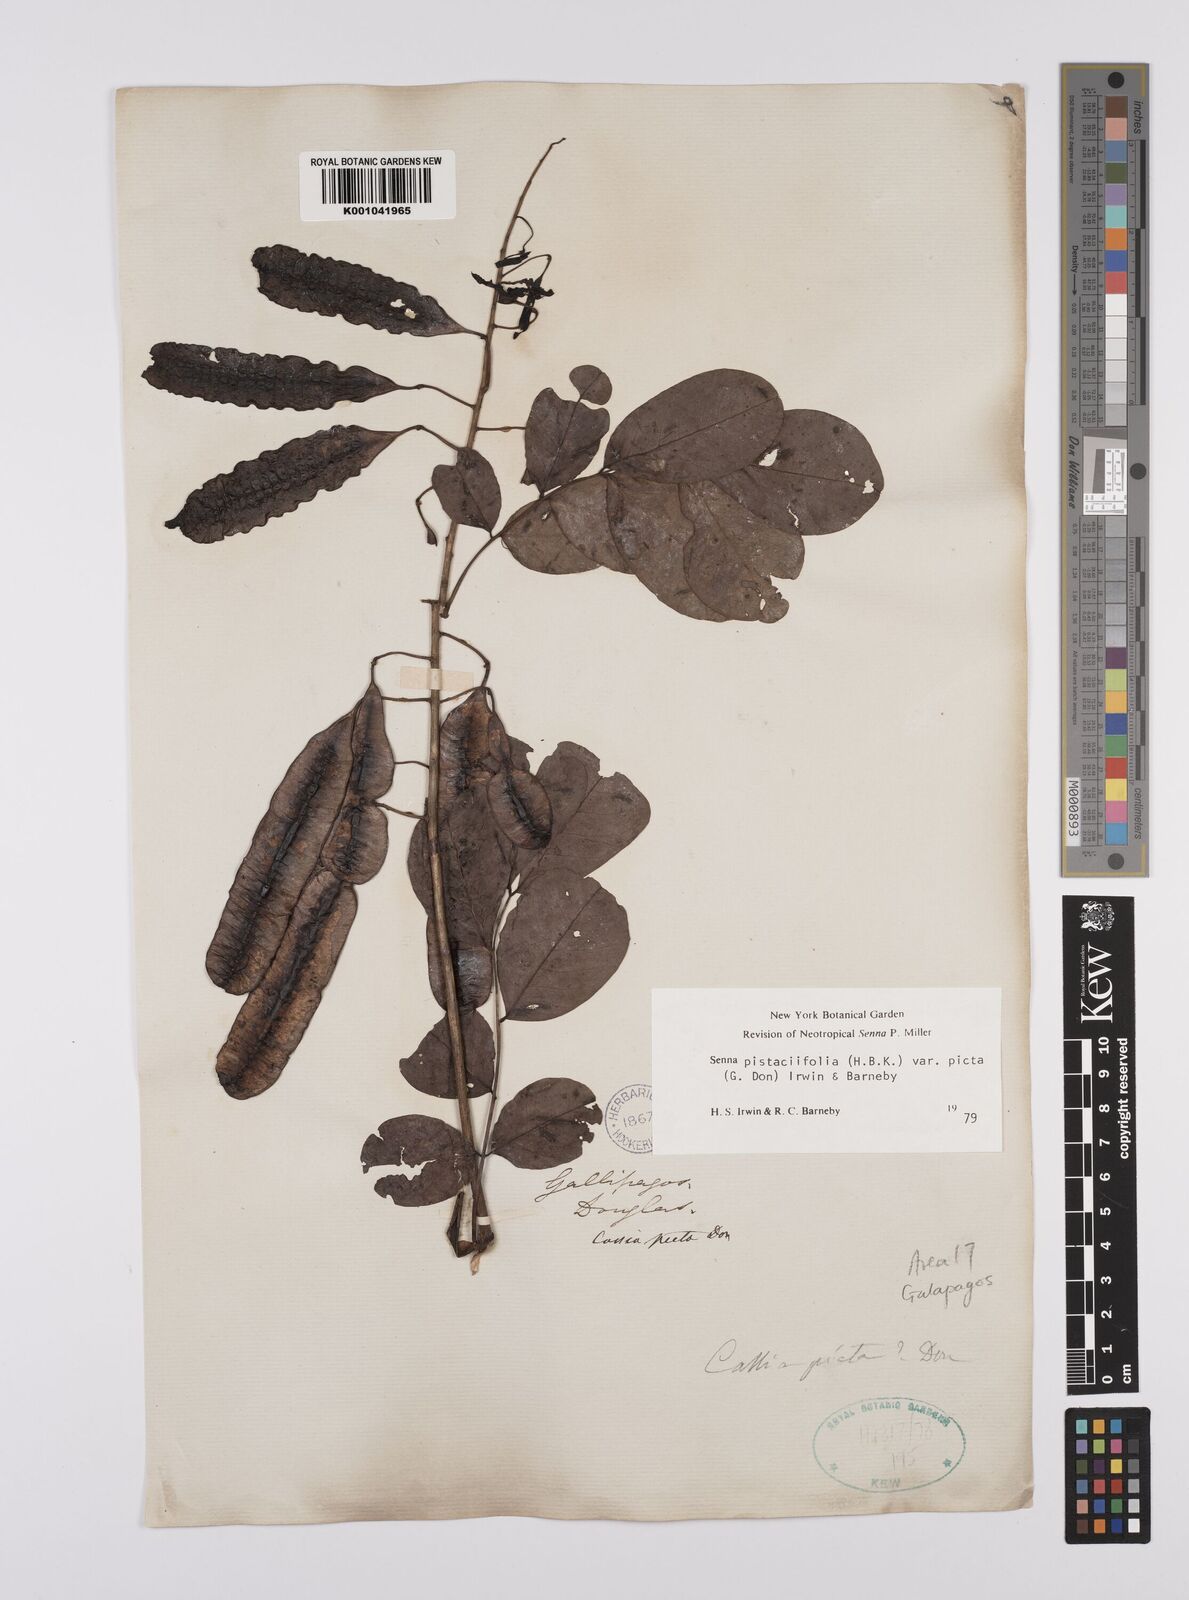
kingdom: Plantae
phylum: Tracheophyta
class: Magnoliopsida
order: Fabales
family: Fabaceae
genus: Senna
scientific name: Senna pistaciifolia
